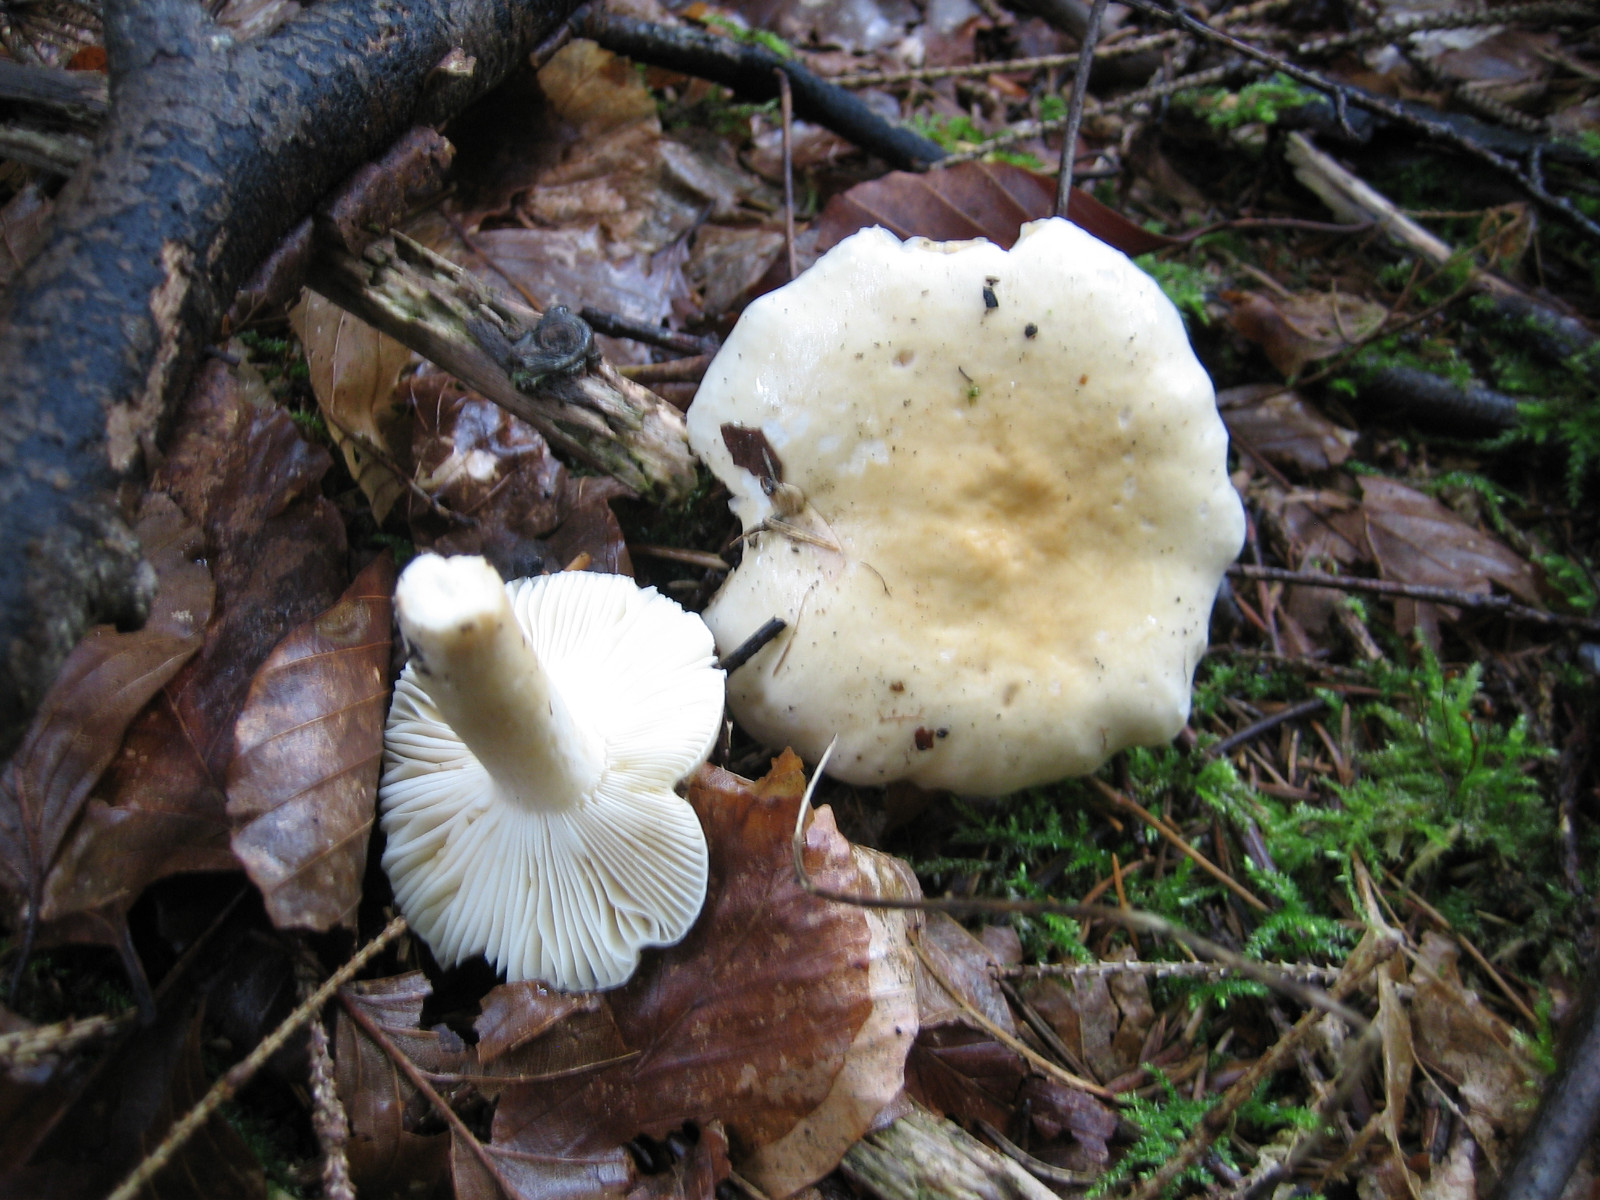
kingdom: Fungi
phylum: Basidiomycota
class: Agaricomycetes
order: Russulales
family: Russulaceae
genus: Russula
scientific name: Russula fellea
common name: galde-skørhat
